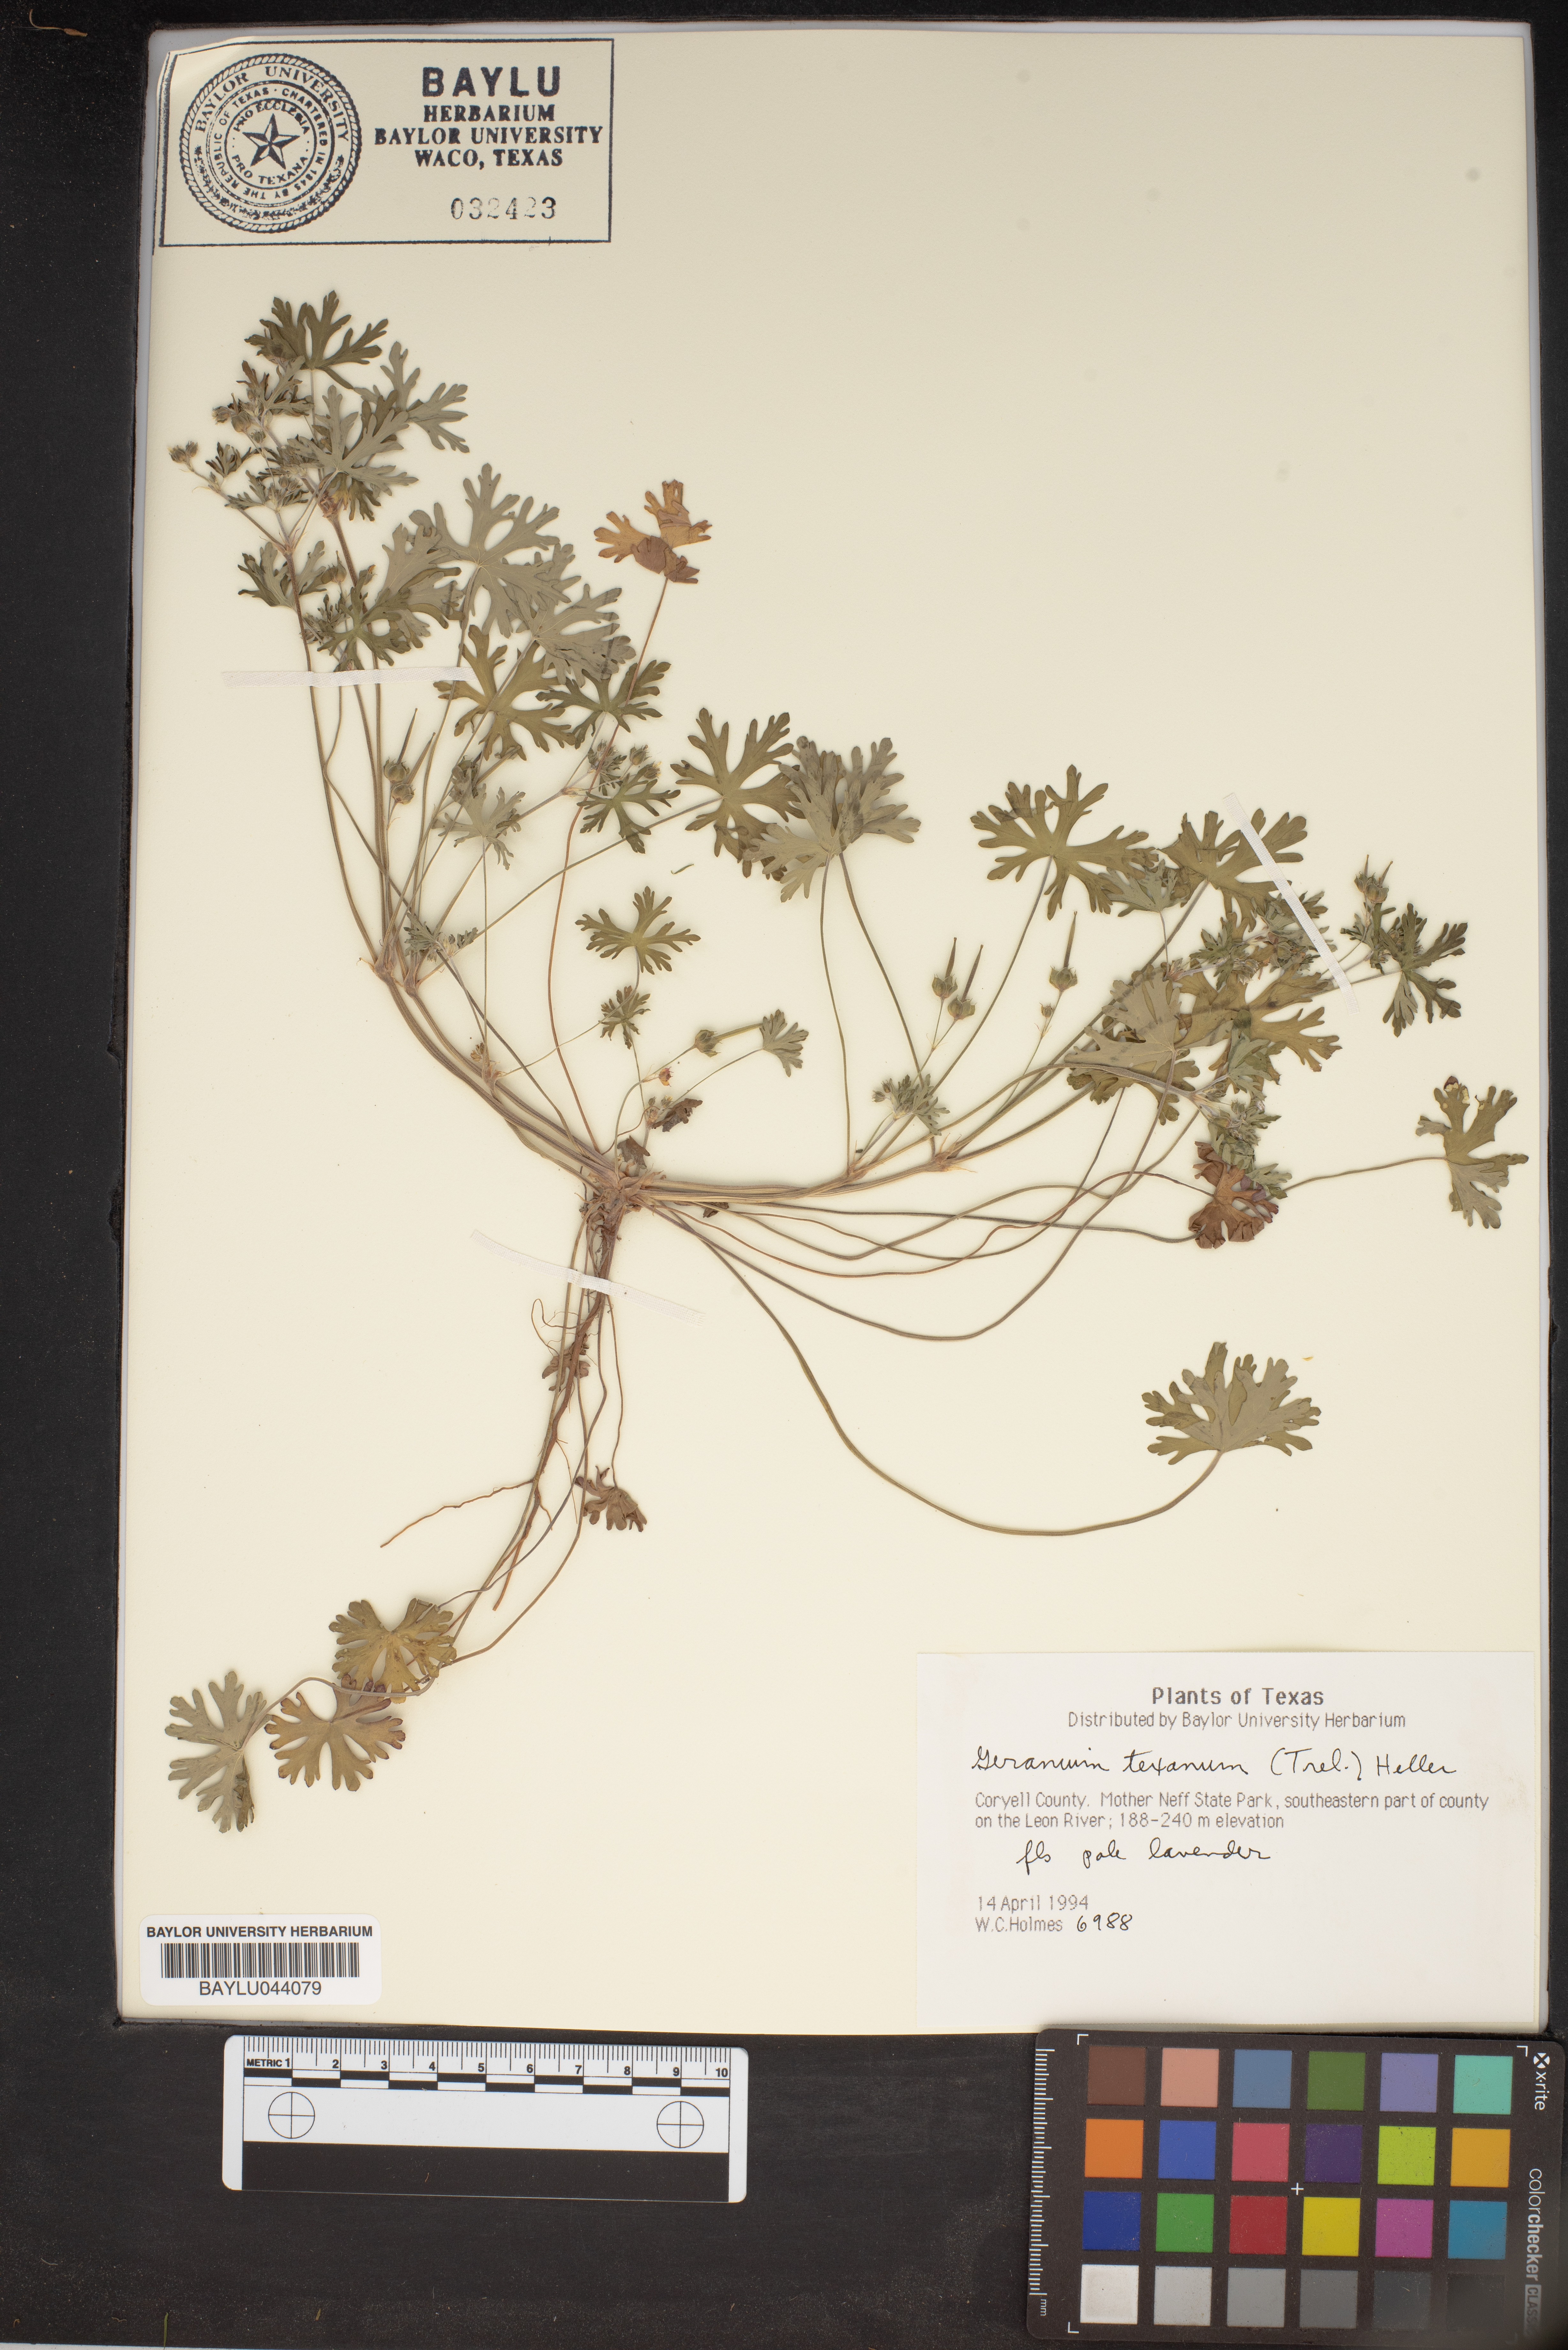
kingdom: Plantae
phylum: Tracheophyta
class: Magnoliopsida
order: Geraniales
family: Geraniaceae
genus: Geranium
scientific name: Geranium texanum
